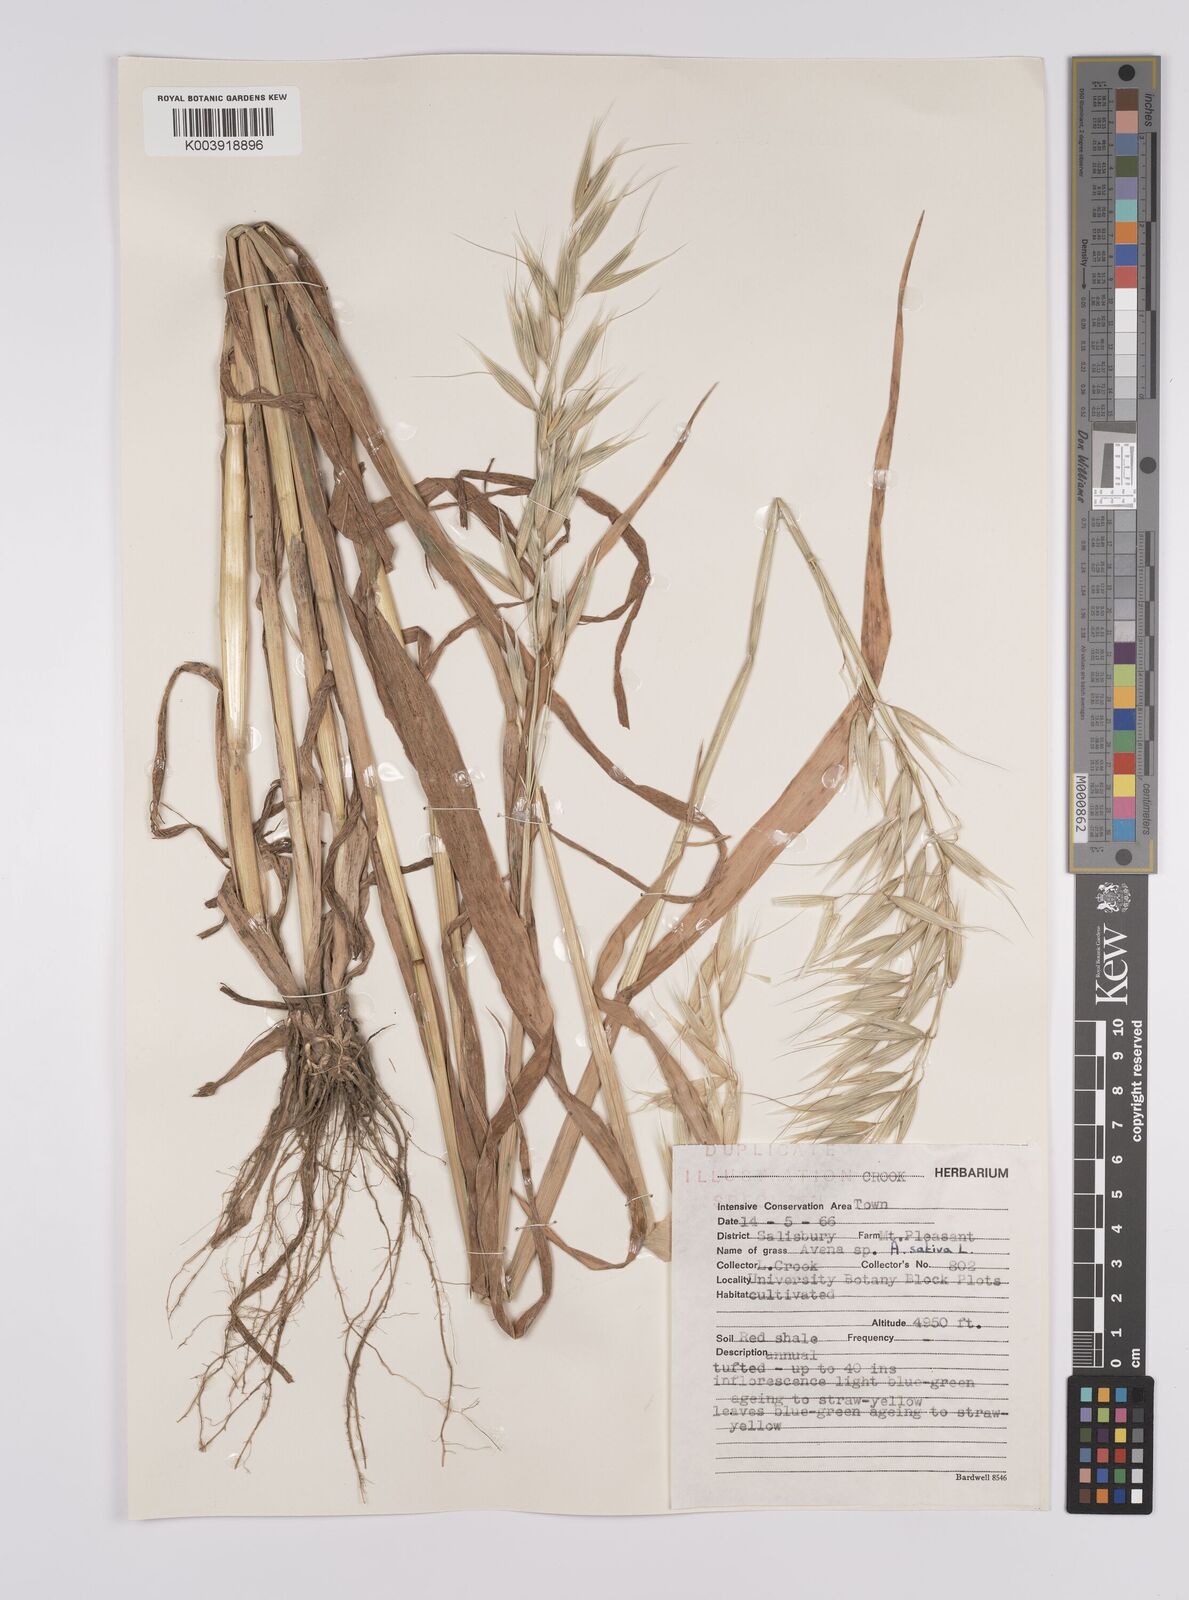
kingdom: Plantae
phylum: Tracheophyta
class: Liliopsida
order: Poales
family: Poaceae
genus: Avena
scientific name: Avena byzantina
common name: Algerian oat
